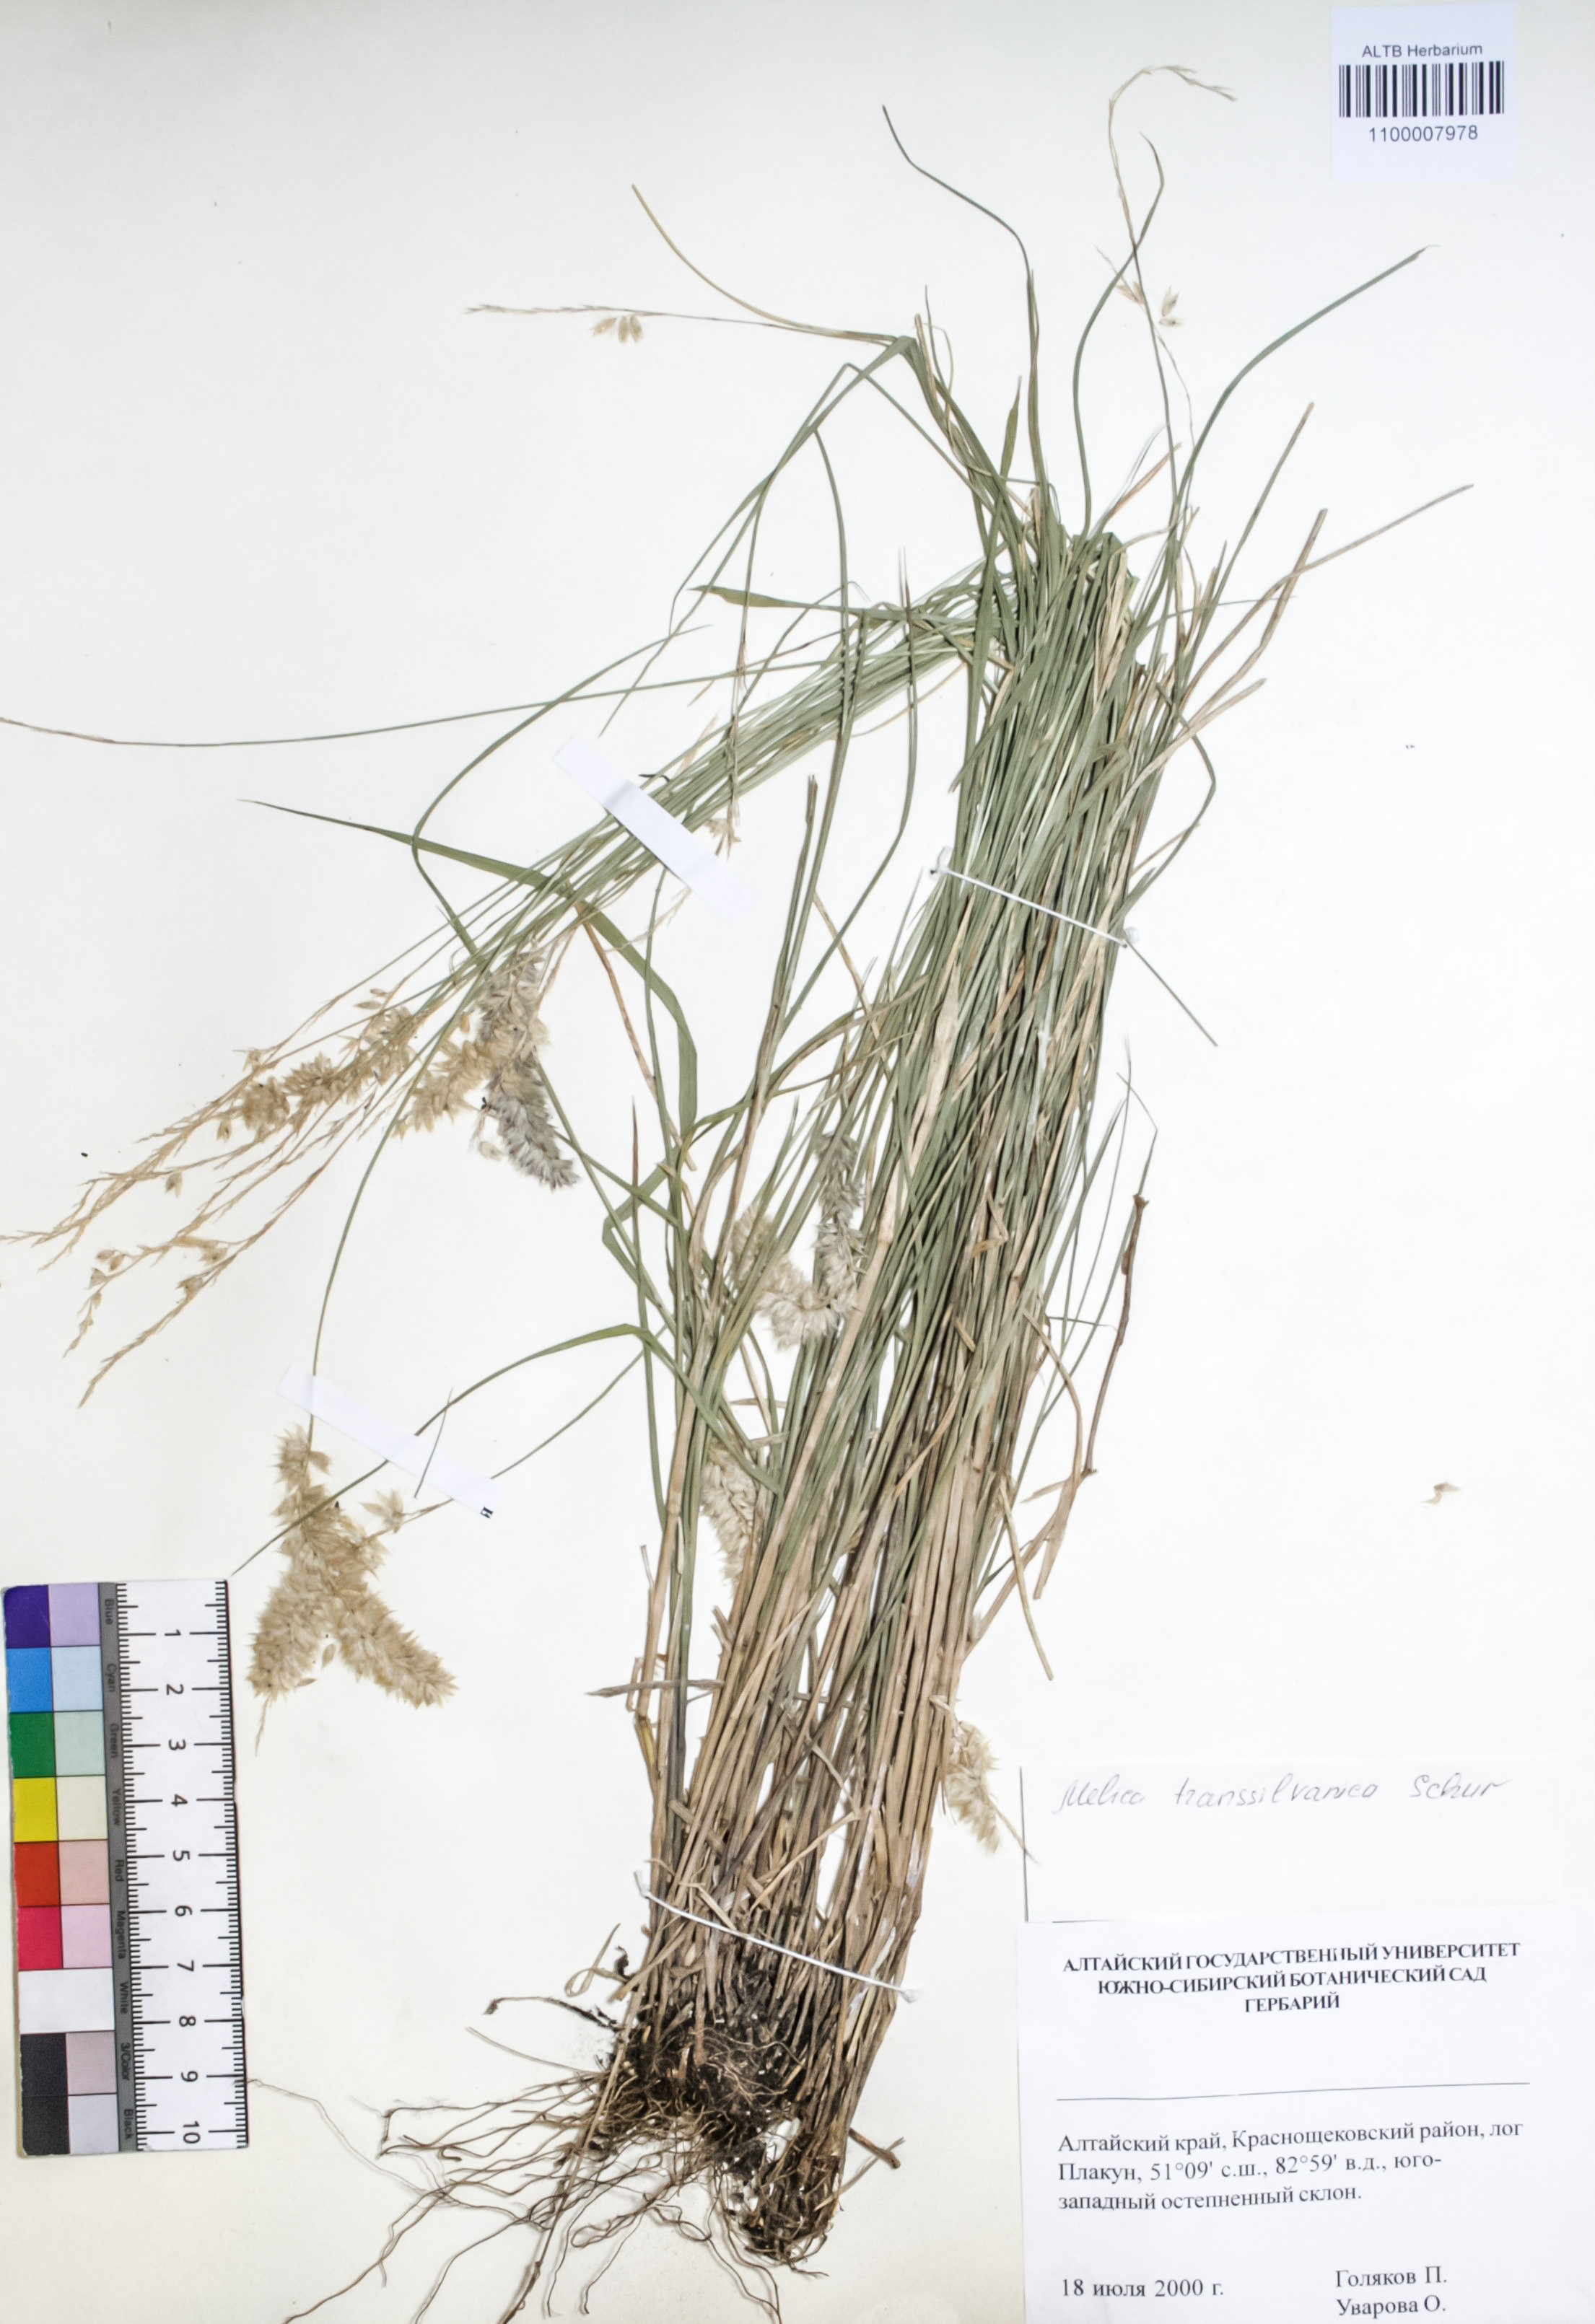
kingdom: Plantae
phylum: Tracheophyta
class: Liliopsida
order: Poales
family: Poaceae
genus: Melica
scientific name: Melica transsilvanica
